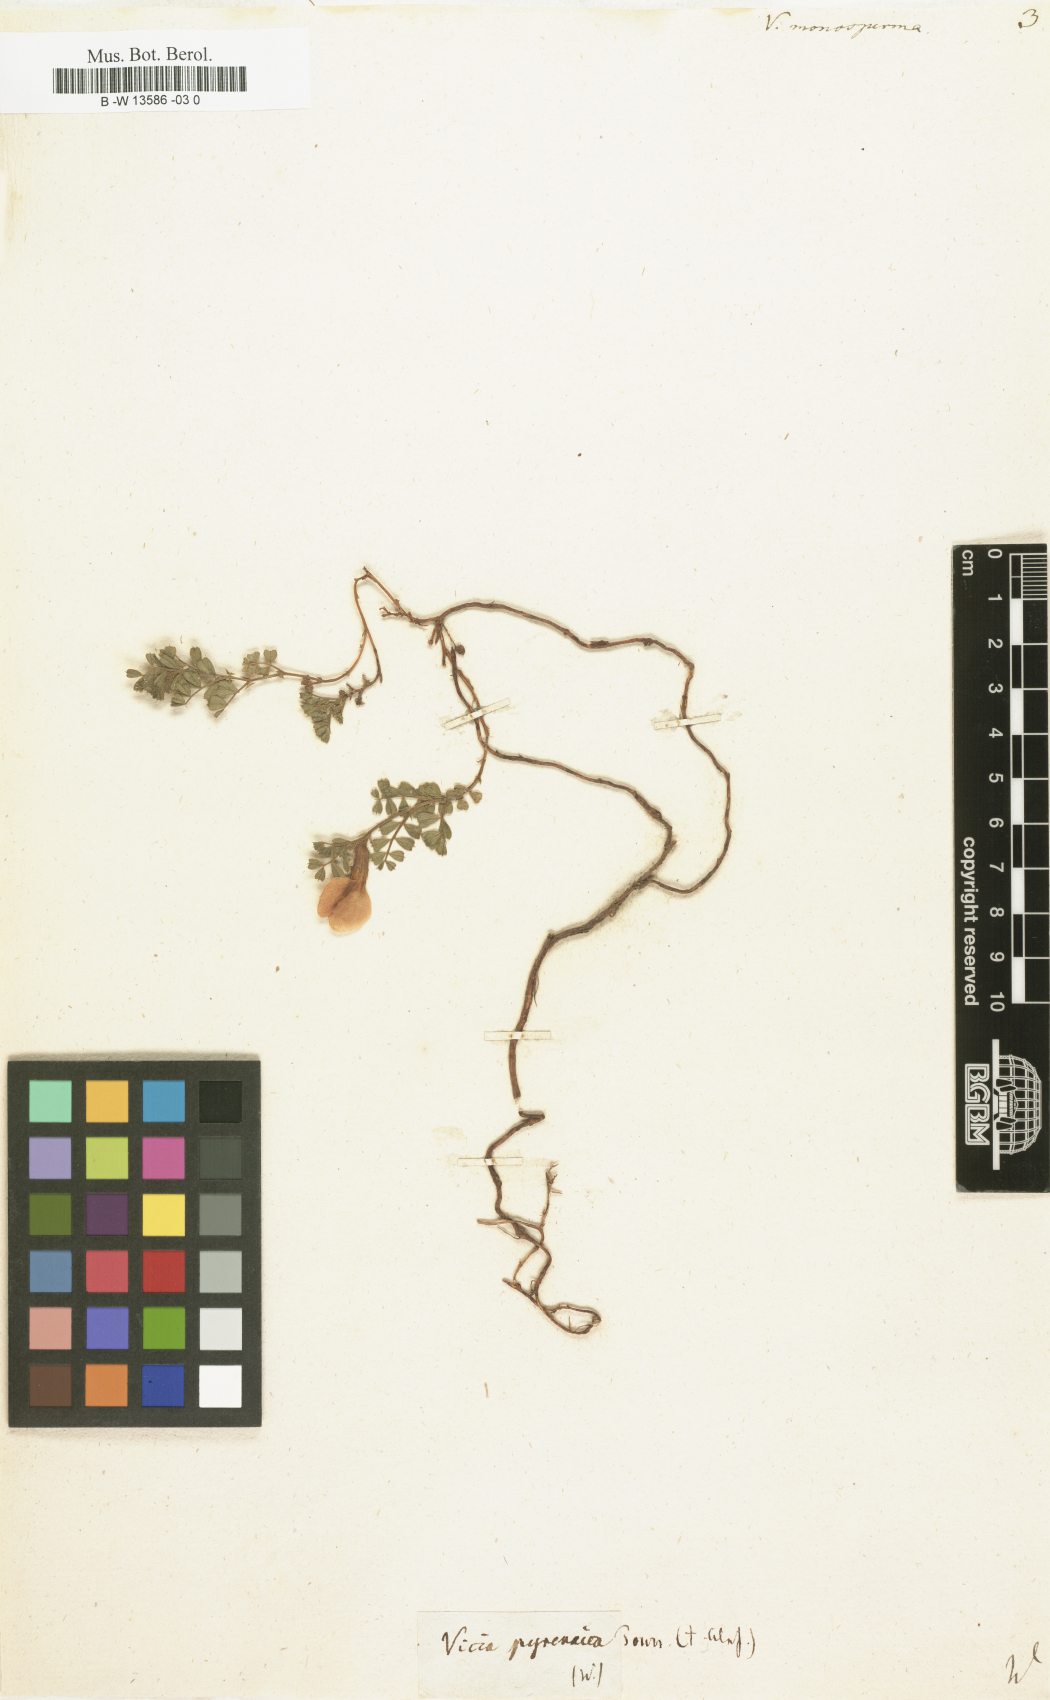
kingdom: Plantae
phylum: Tracheophyta
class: Magnoliopsida
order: Fabales
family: Fabaceae
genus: Vicia
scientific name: Vicia
